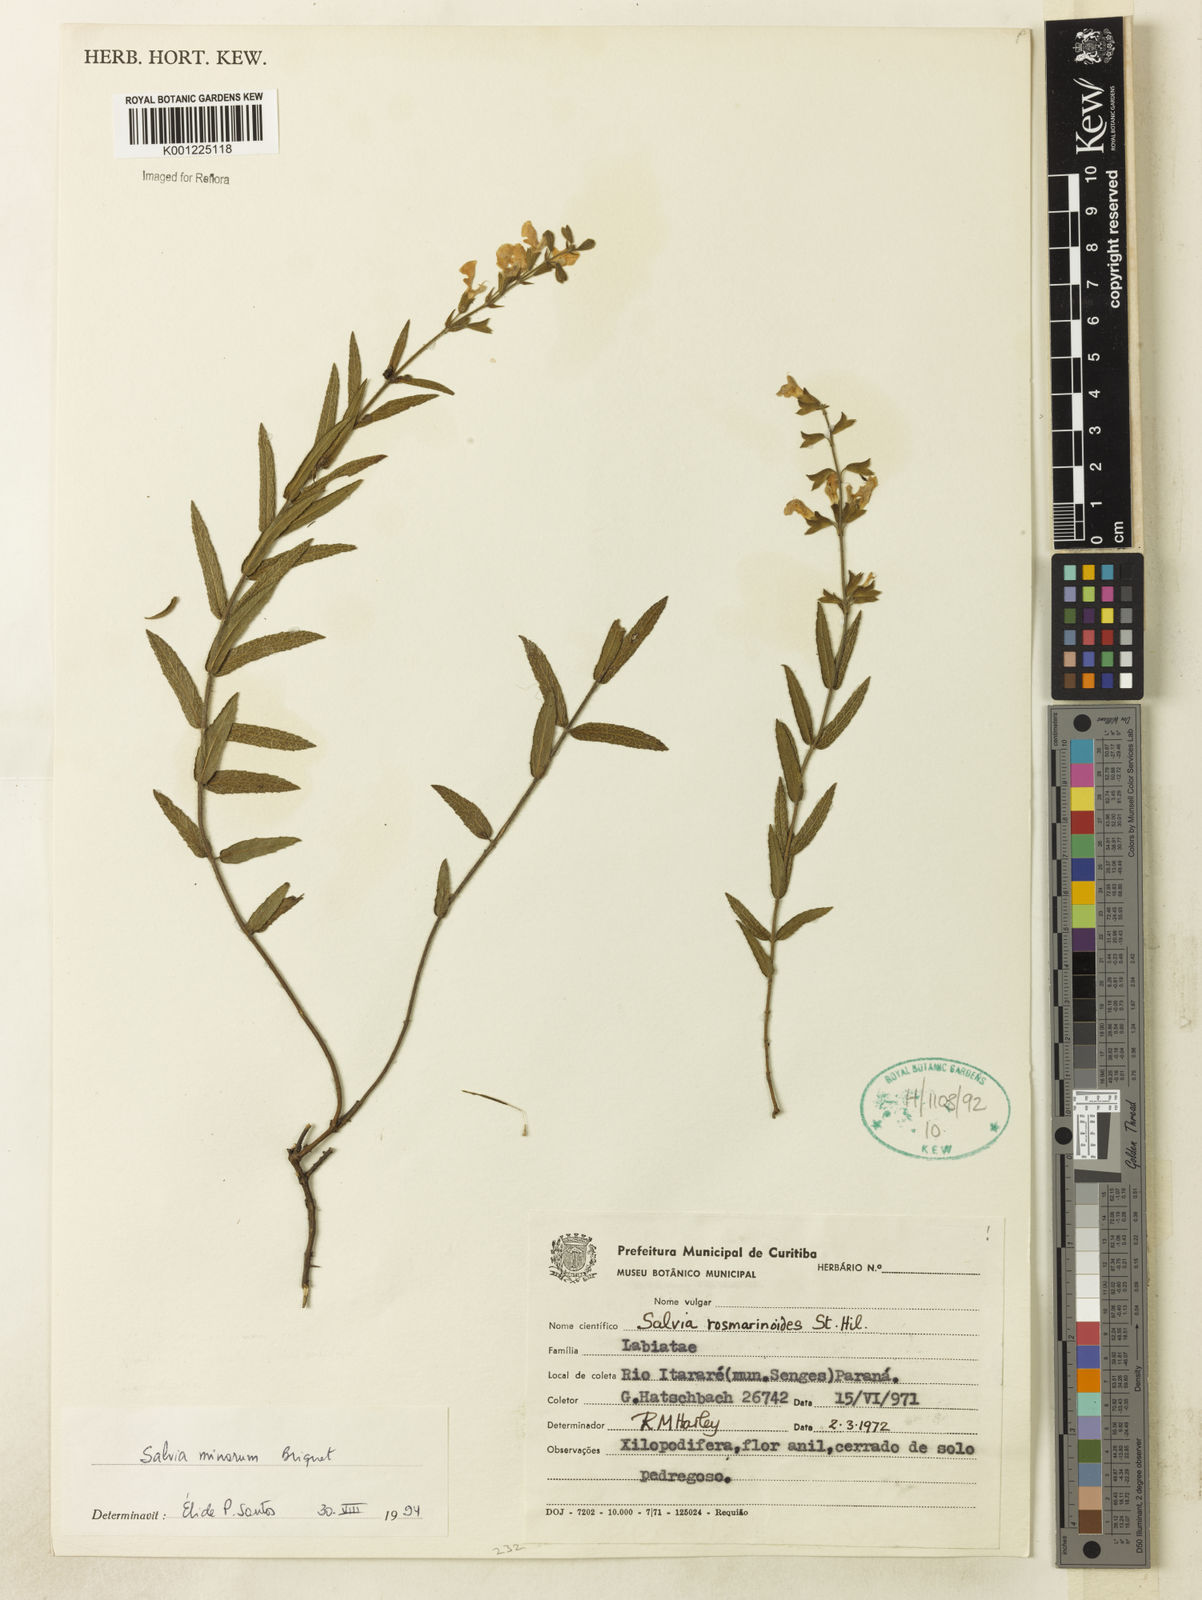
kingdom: Plantae
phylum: Tracheophyta
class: Magnoliopsida
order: Lamiales
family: Lamiaceae
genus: Salvia
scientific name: Salvia minarum
